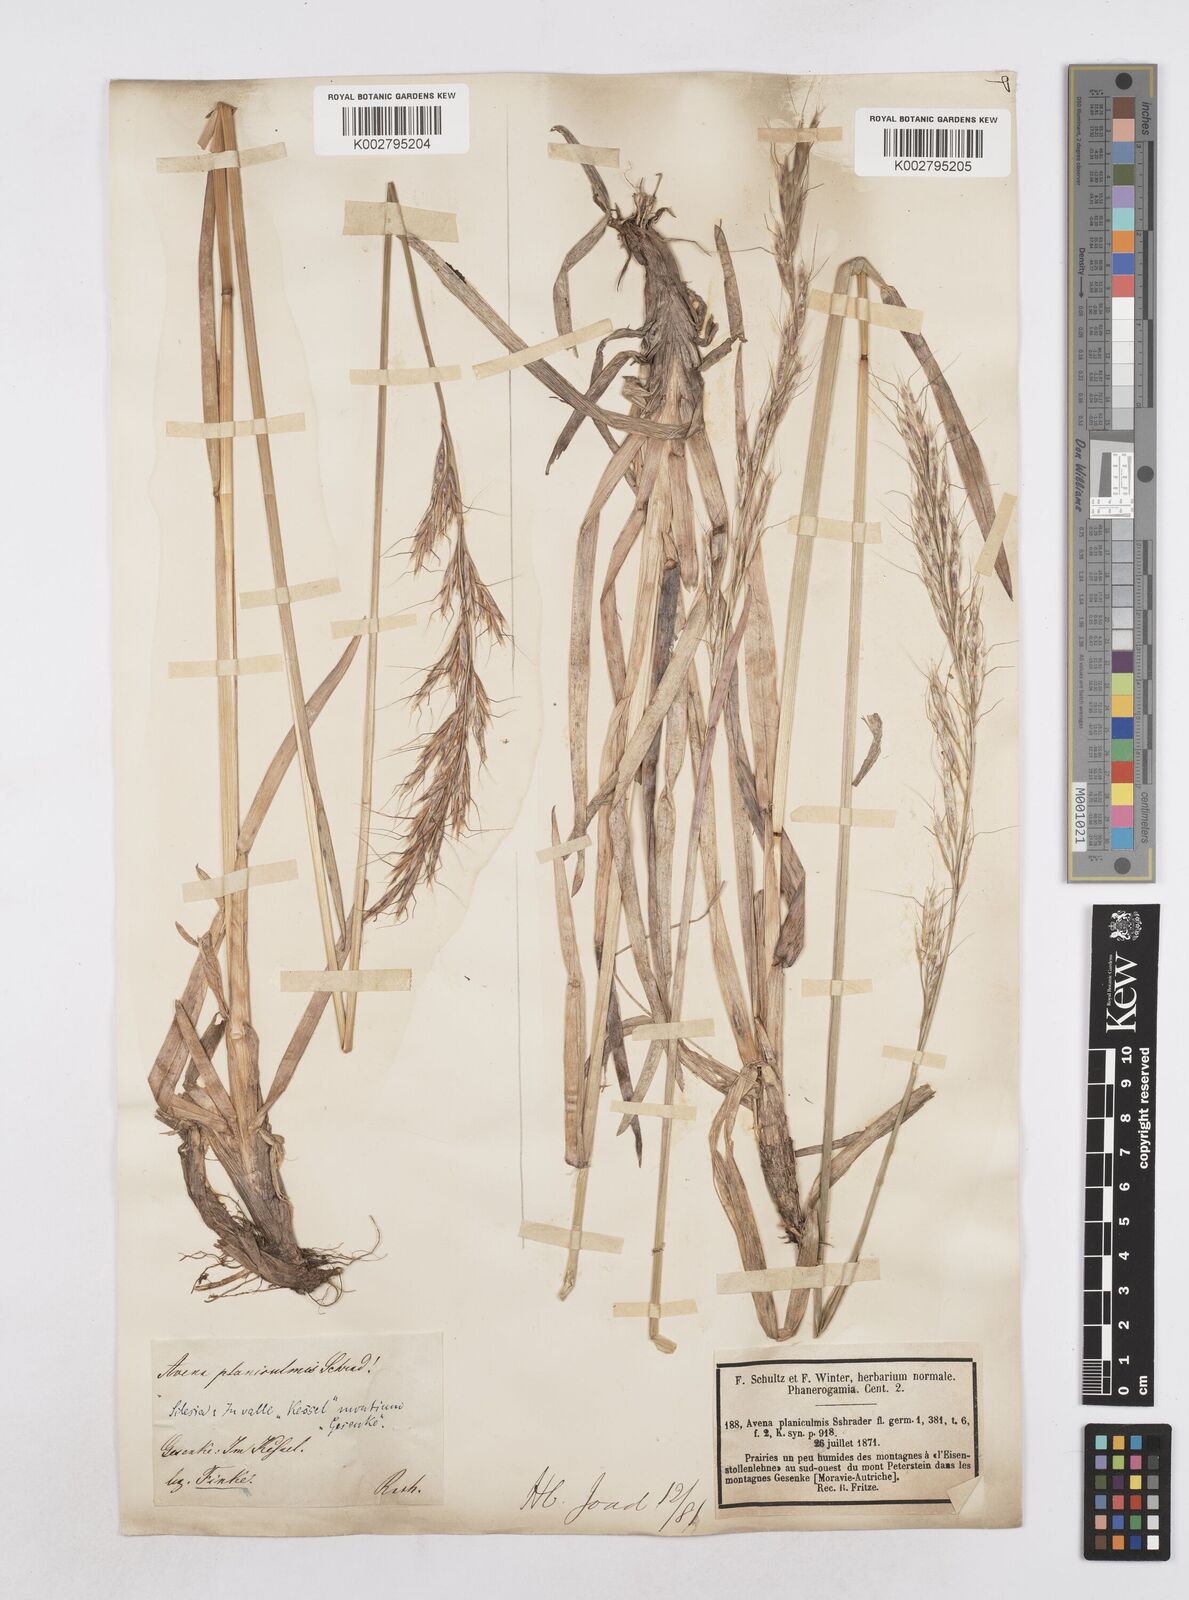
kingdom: Plantae
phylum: Tracheophyta
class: Liliopsida
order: Poales
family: Poaceae
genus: Helictochloa
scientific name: Helictochloa planiculmis
